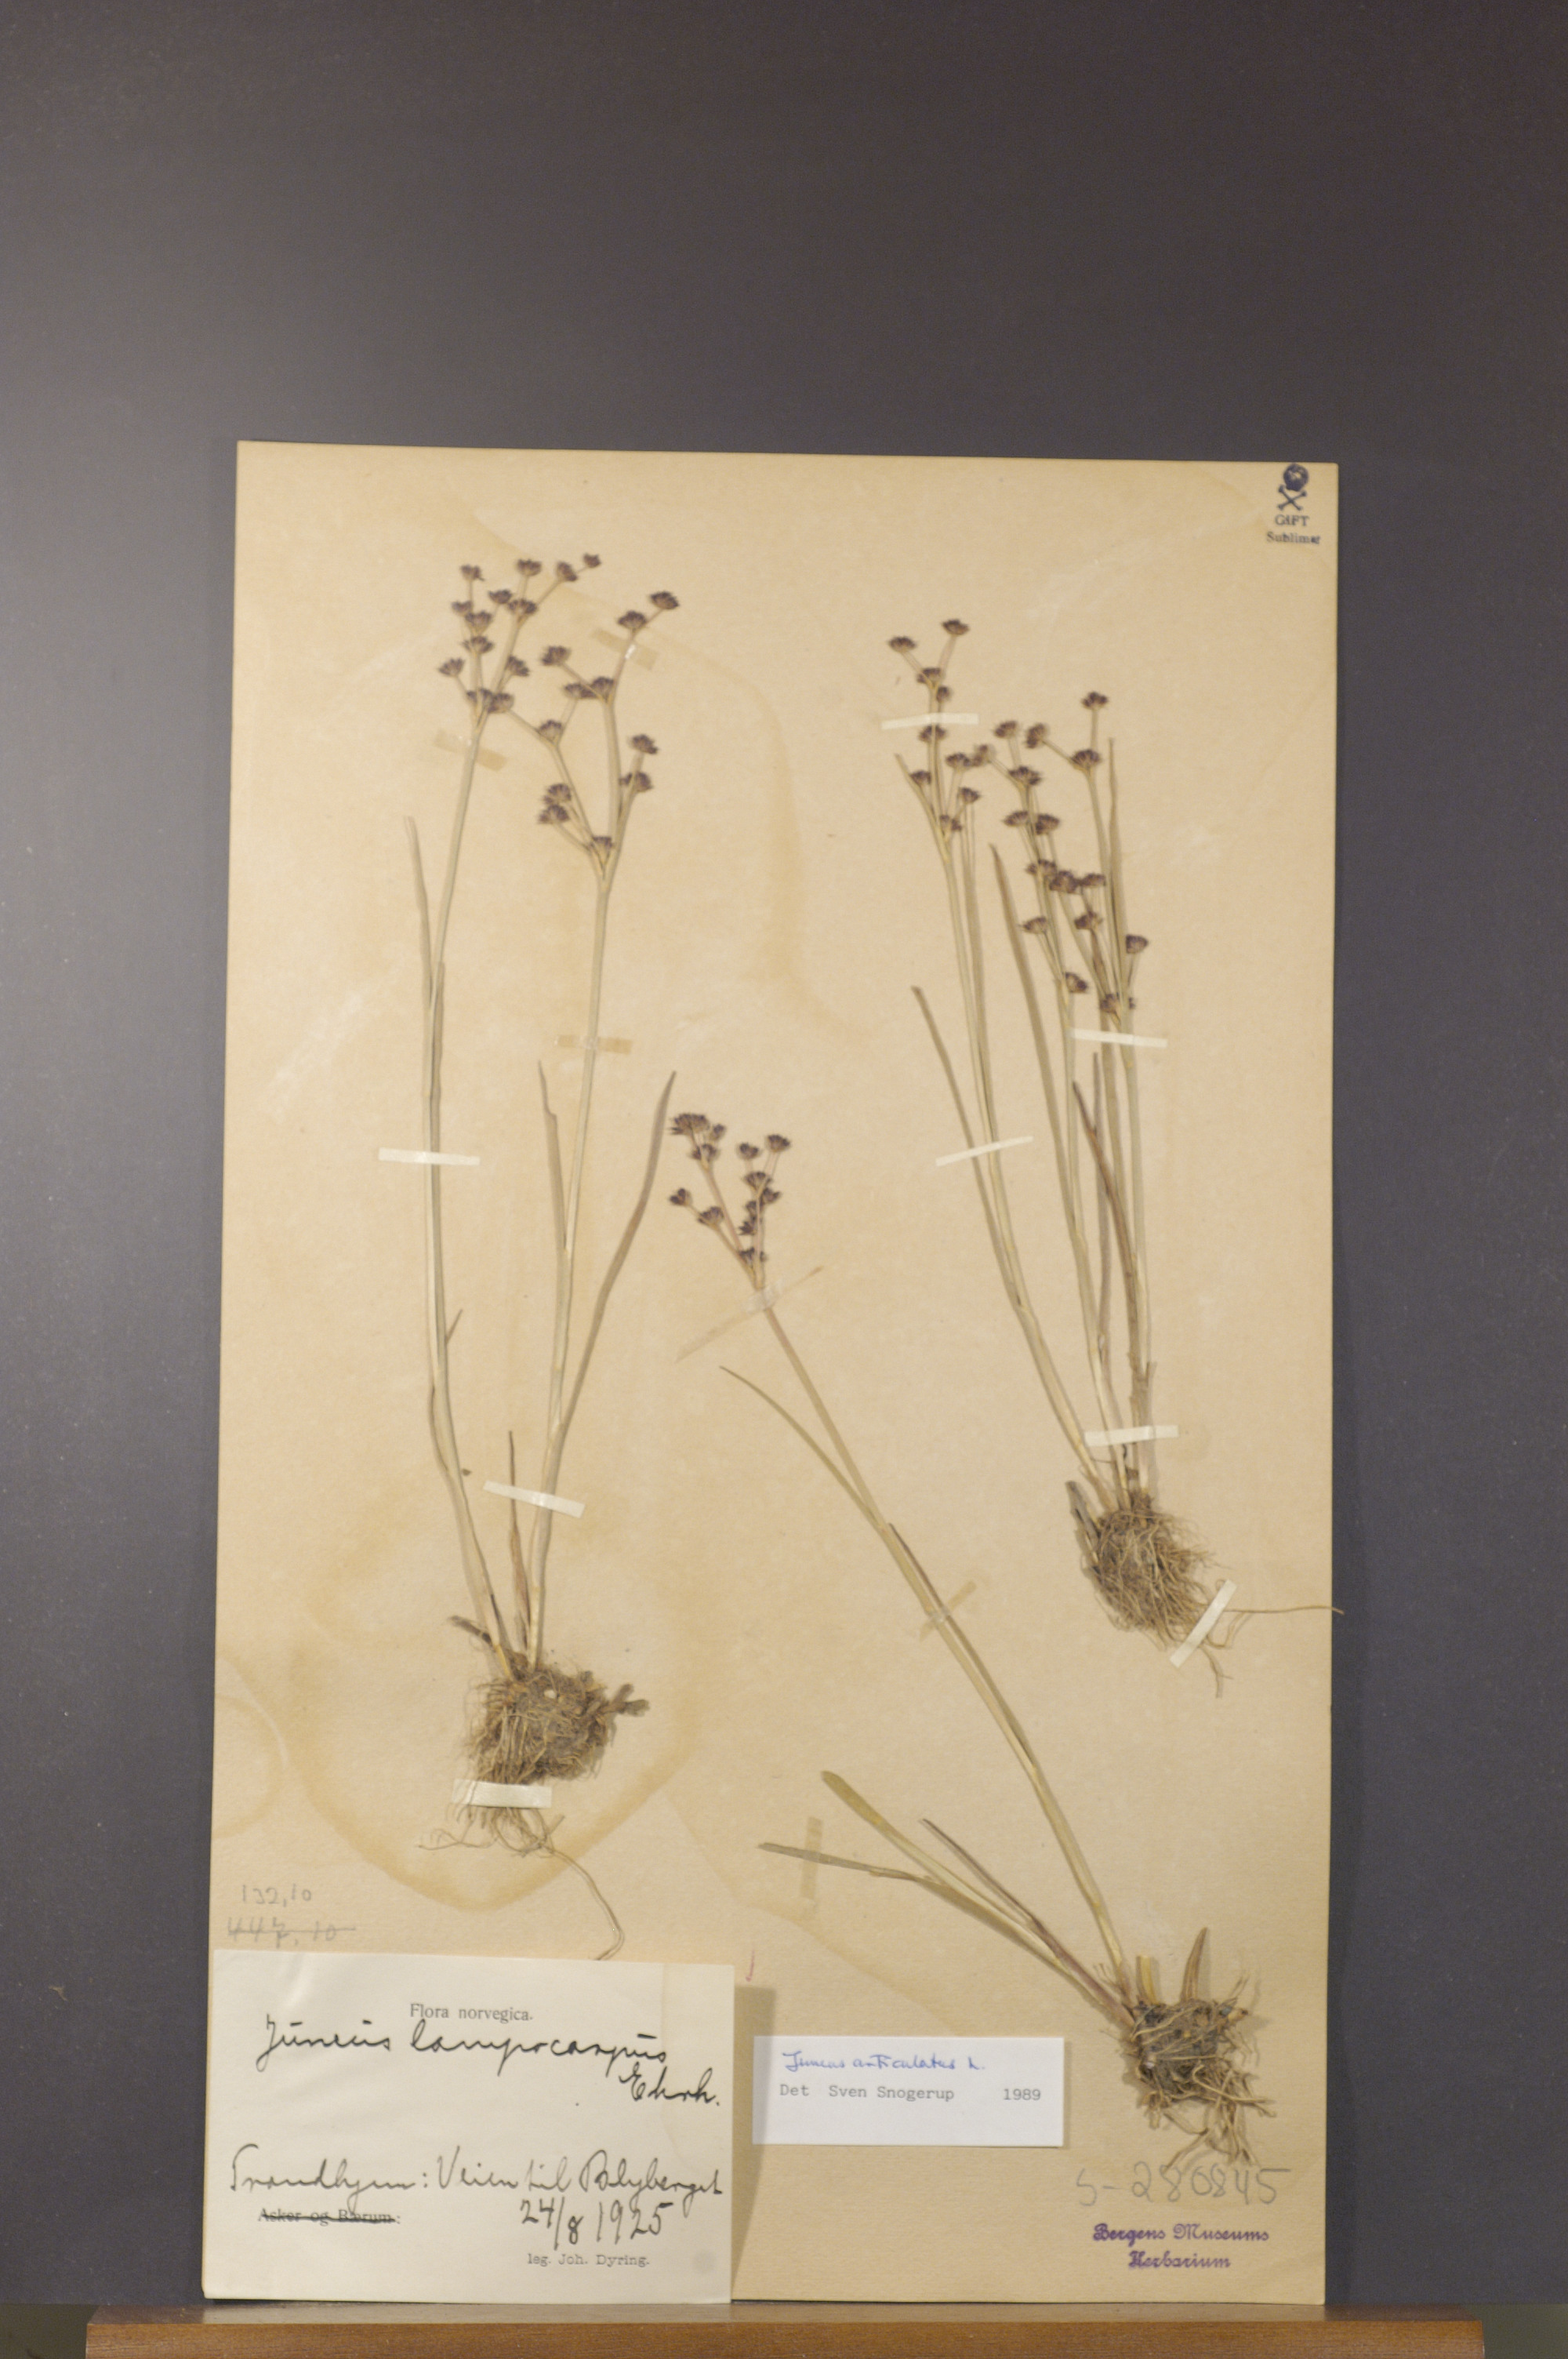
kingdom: Plantae
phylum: Tracheophyta
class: Liliopsida
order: Poales
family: Juncaceae
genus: Juncus
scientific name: Juncus articulatus
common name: Jointed rush
